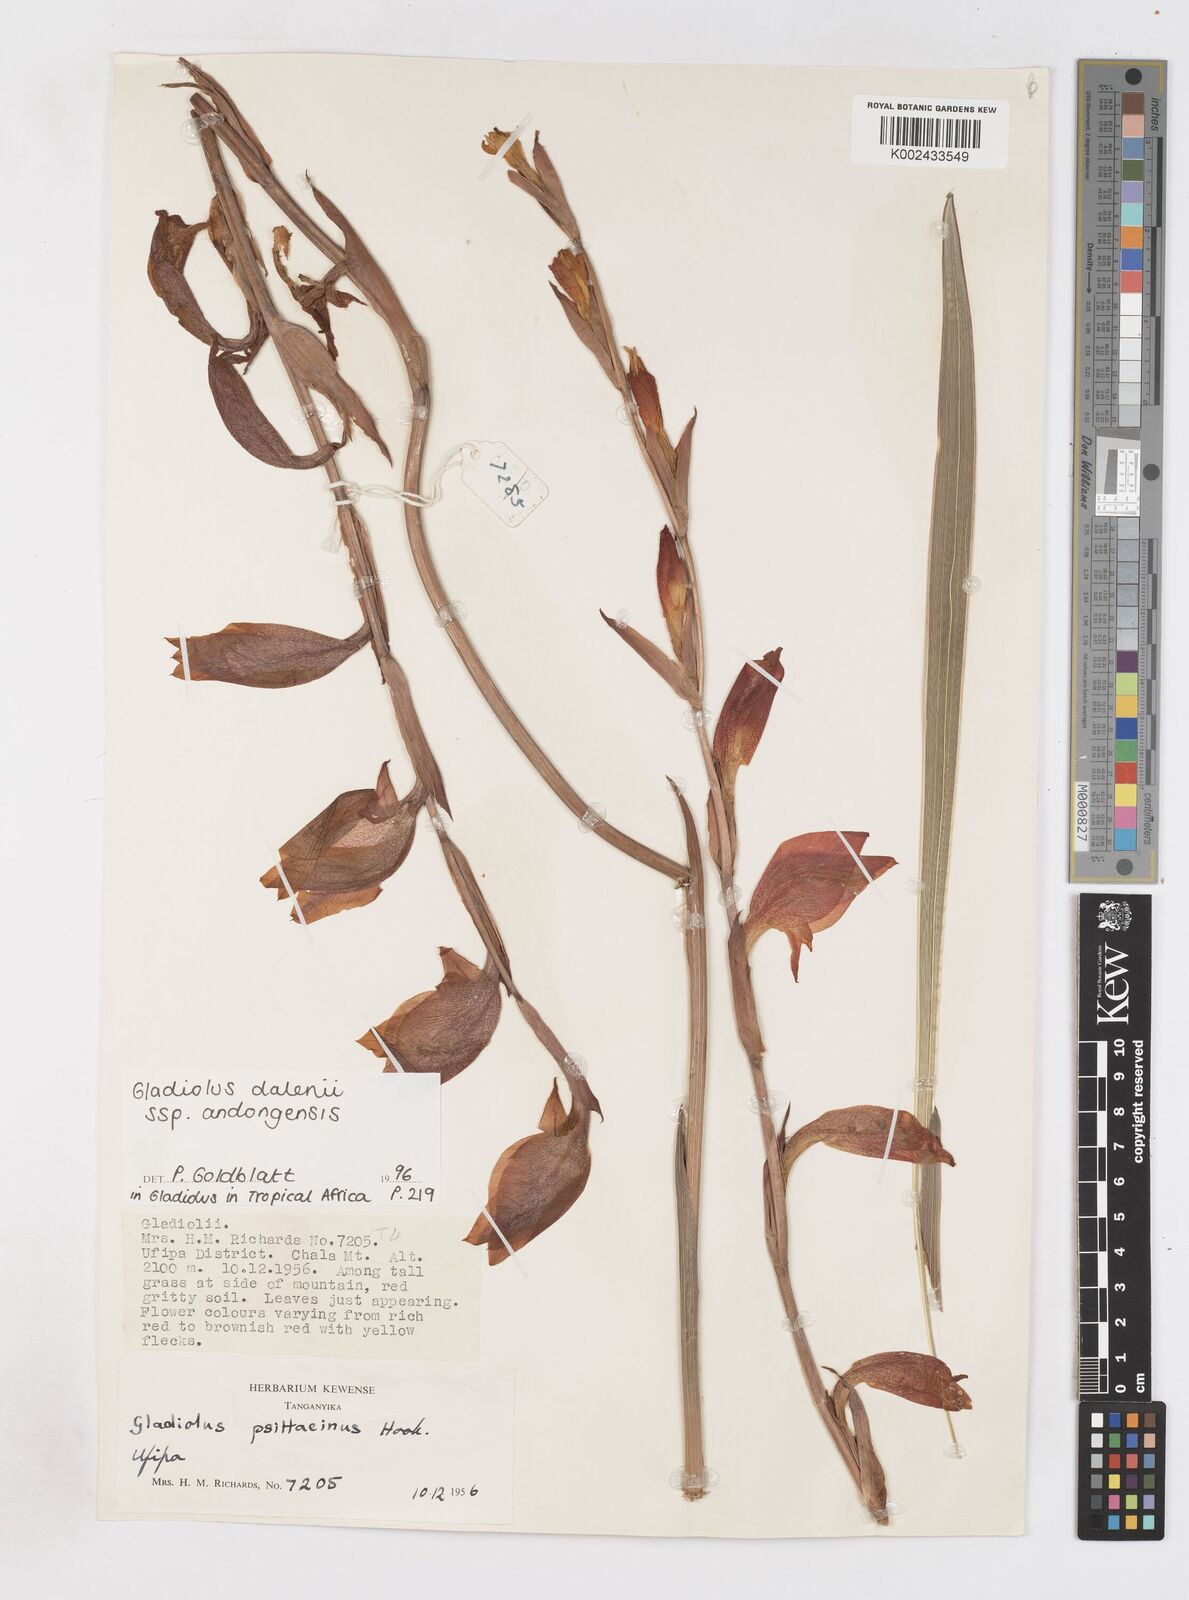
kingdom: Plantae
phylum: Tracheophyta
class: Liliopsida
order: Asparagales
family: Iridaceae
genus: Gladiolus
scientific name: Gladiolus dalenii
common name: Cornflag
